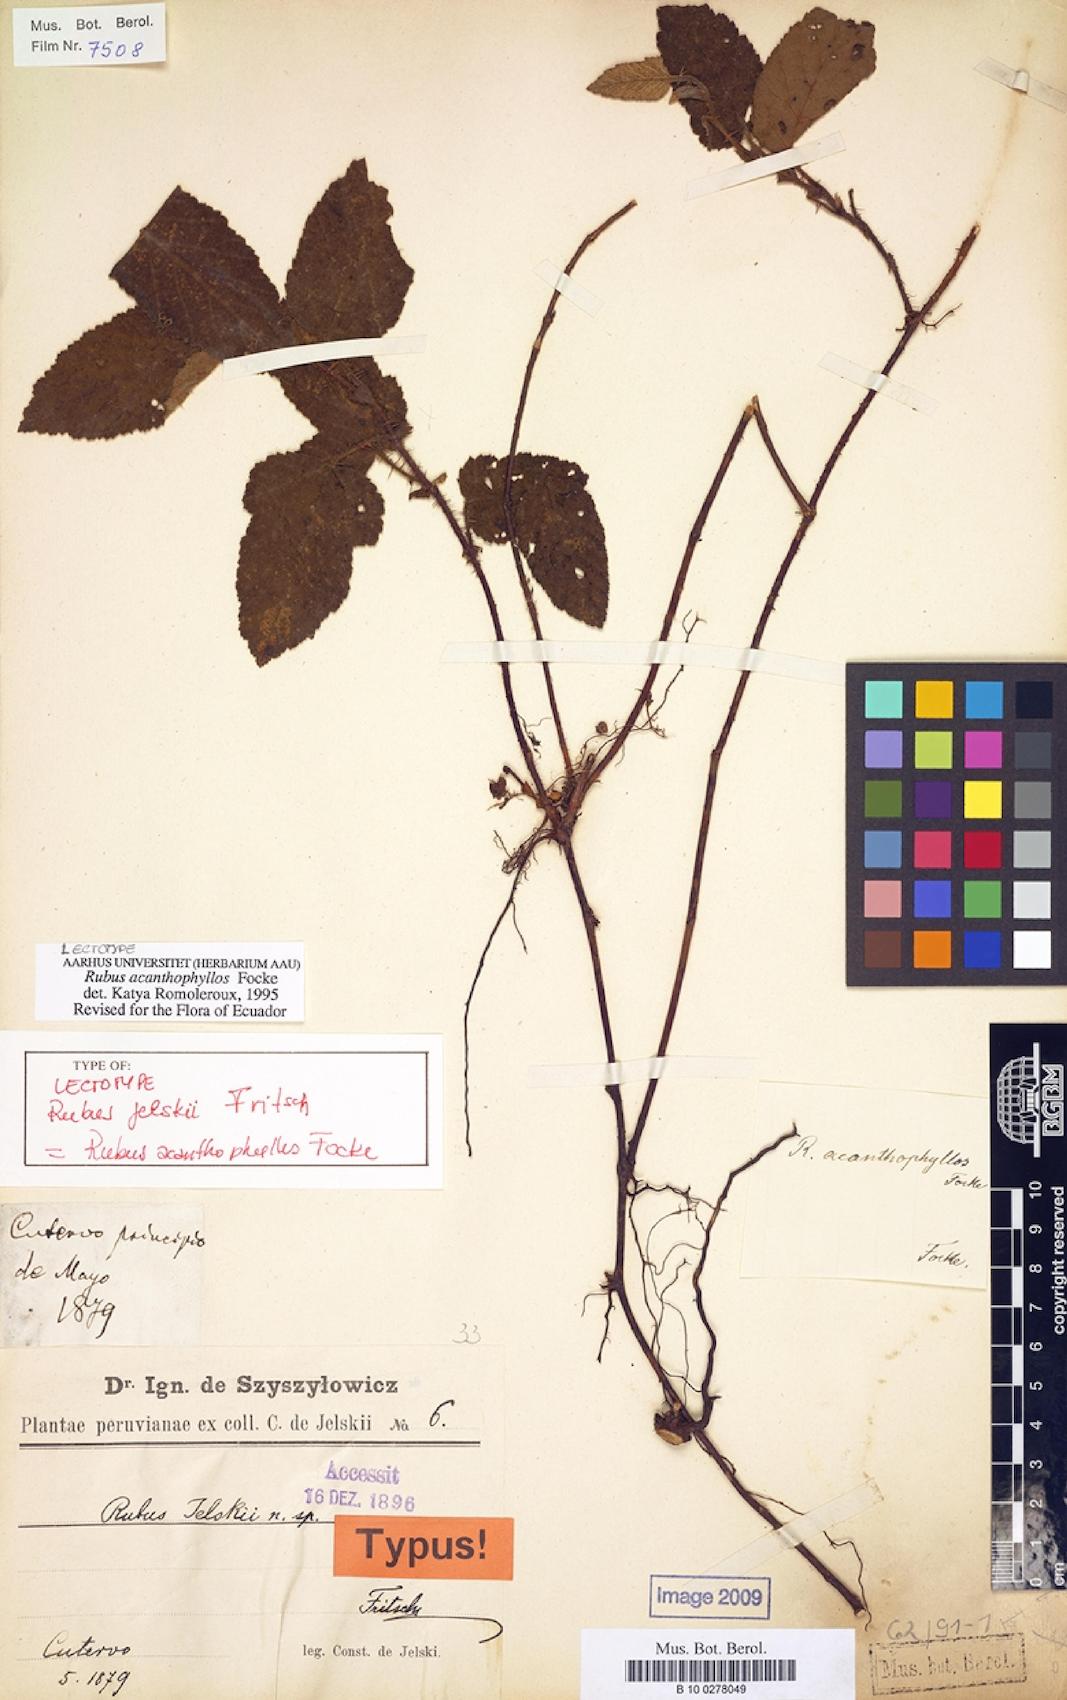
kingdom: Plantae
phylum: Tracheophyta
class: Magnoliopsida
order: Rosales
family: Rosaceae
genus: Rubus
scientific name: Rubus acanthophyllos
